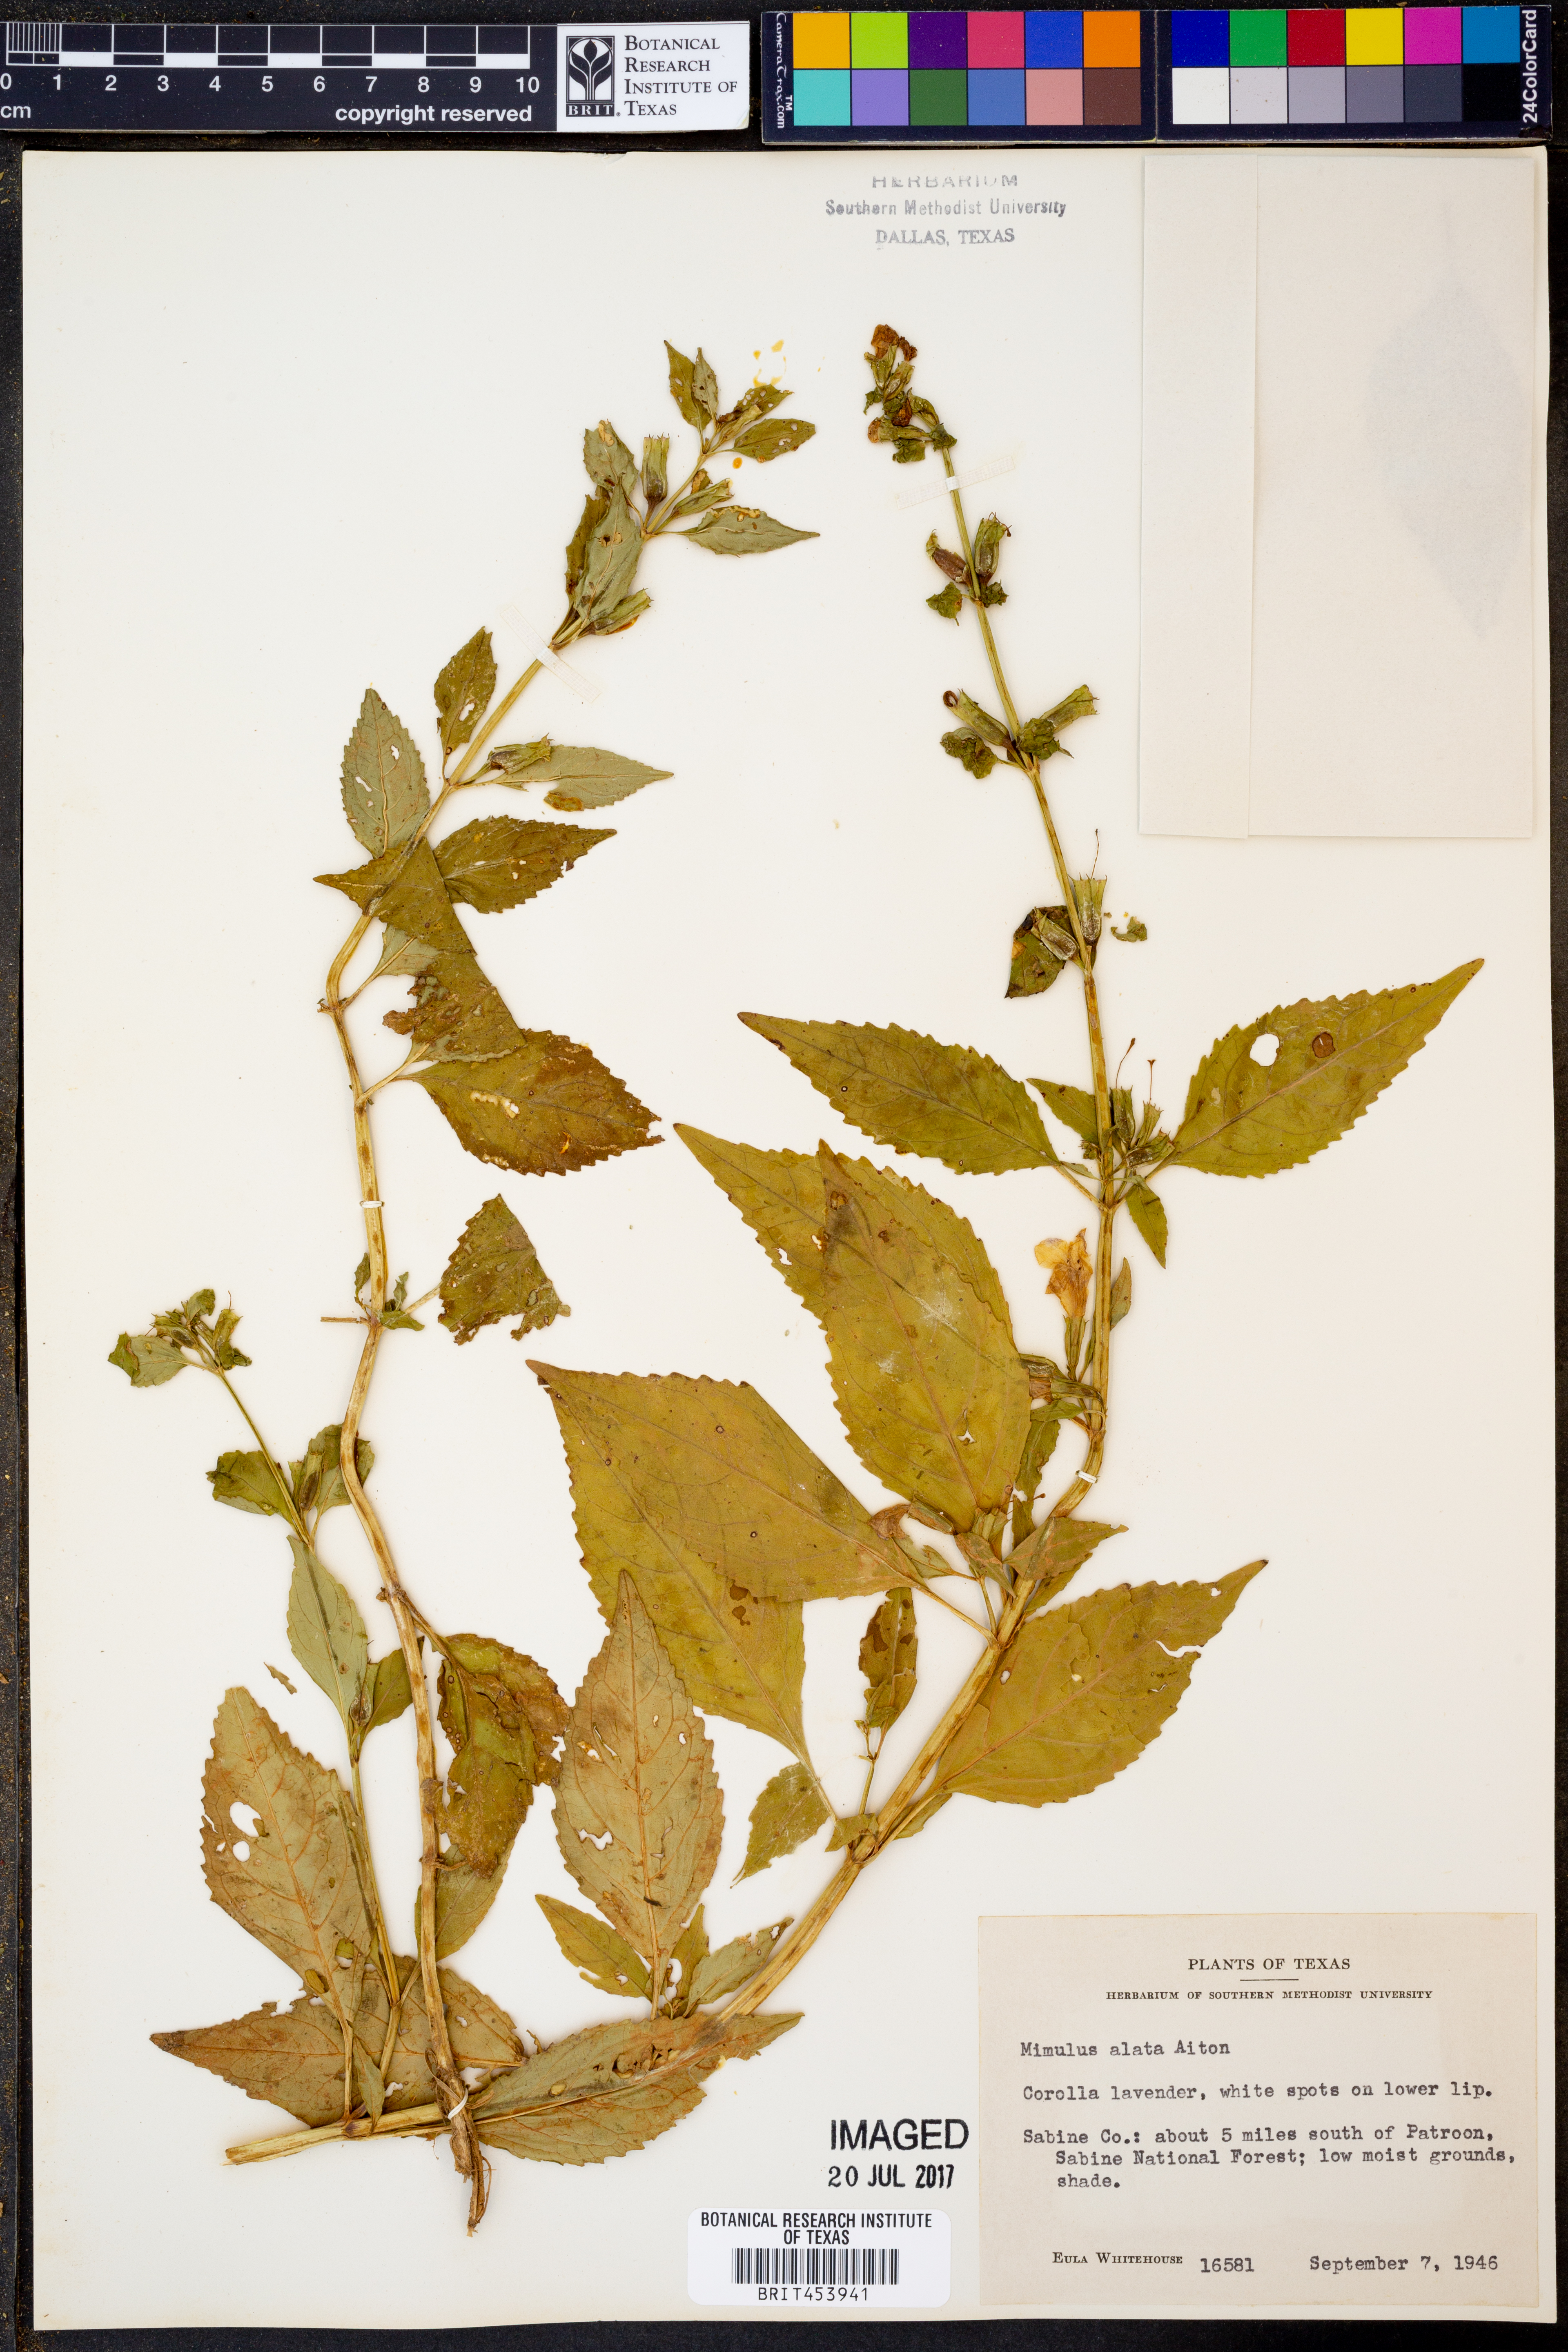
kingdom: Plantae
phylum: Tracheophyta
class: Magnoliopsida
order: Lamiales
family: Phrymaceae
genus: Mimulus
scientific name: Mimulus alatus
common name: Sharp-wing monkey-flower
